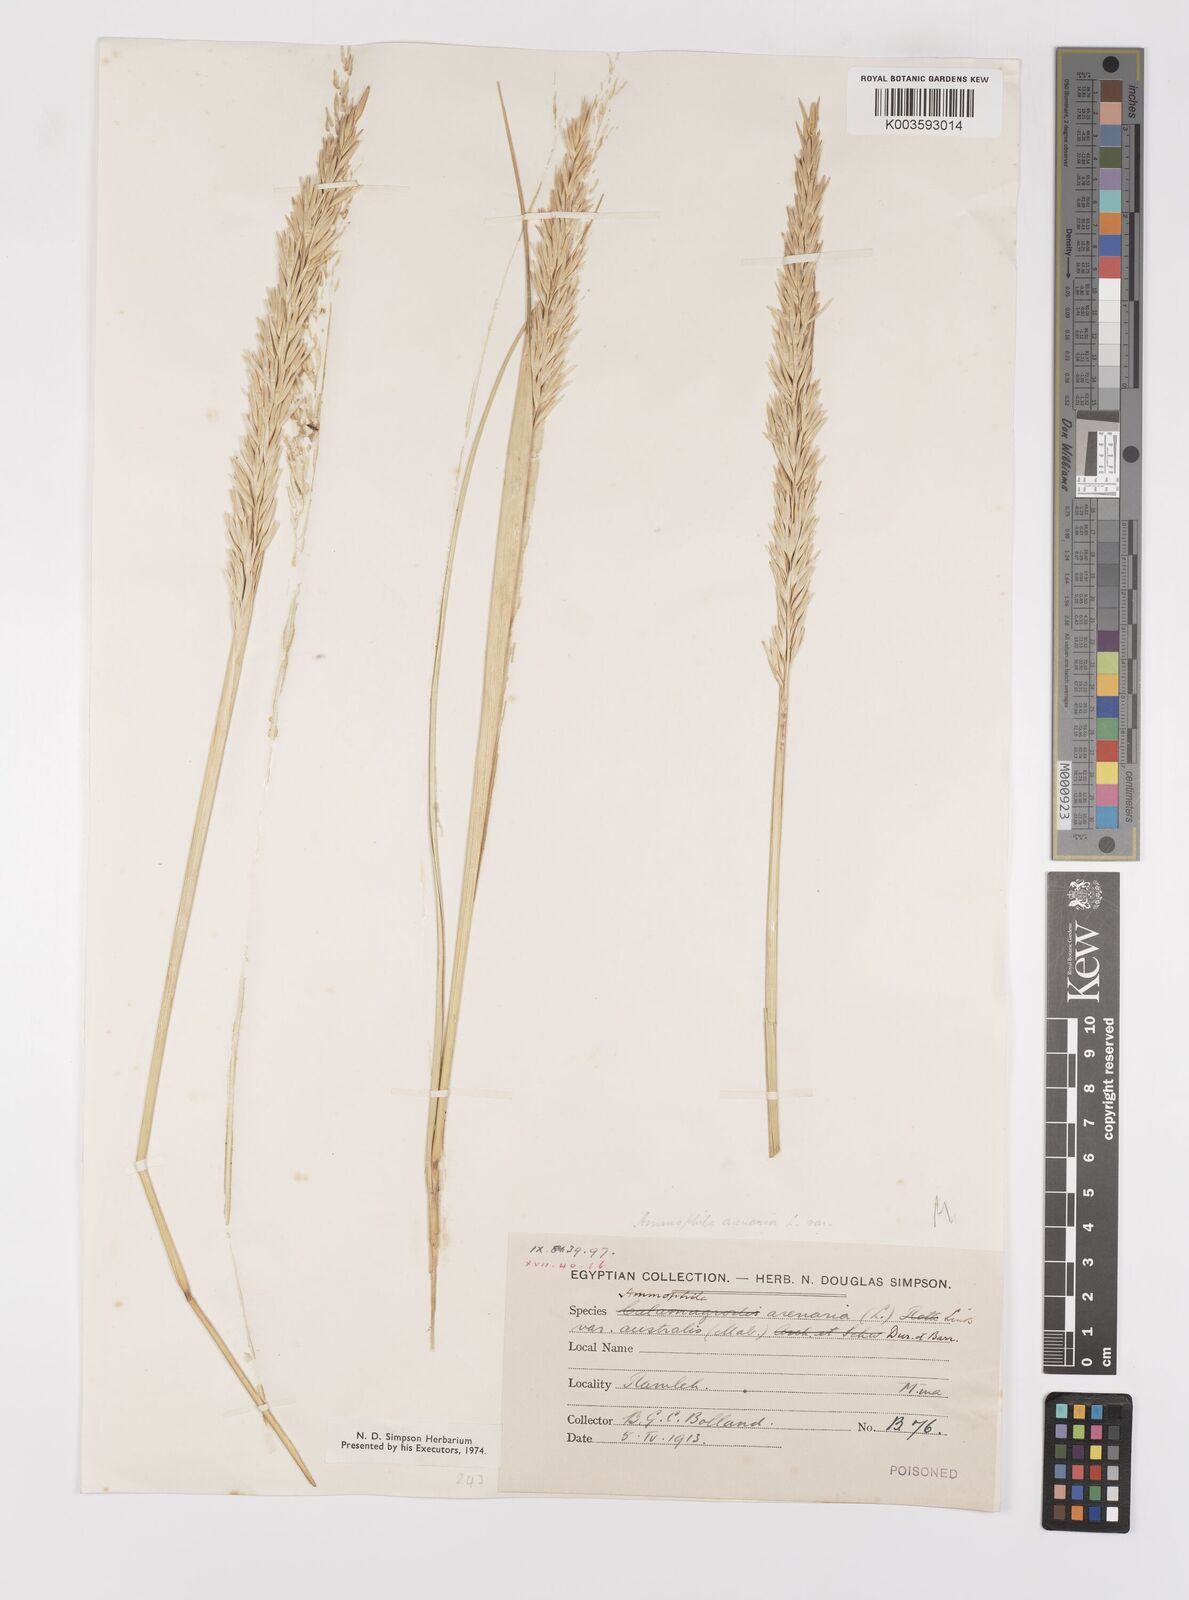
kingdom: Plantae
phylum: Tracheophyta
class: Liliopsida
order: Poales
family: Poaceae
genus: Calamagrostis
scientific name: Calamagrostis arenaria
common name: European beachgrass
